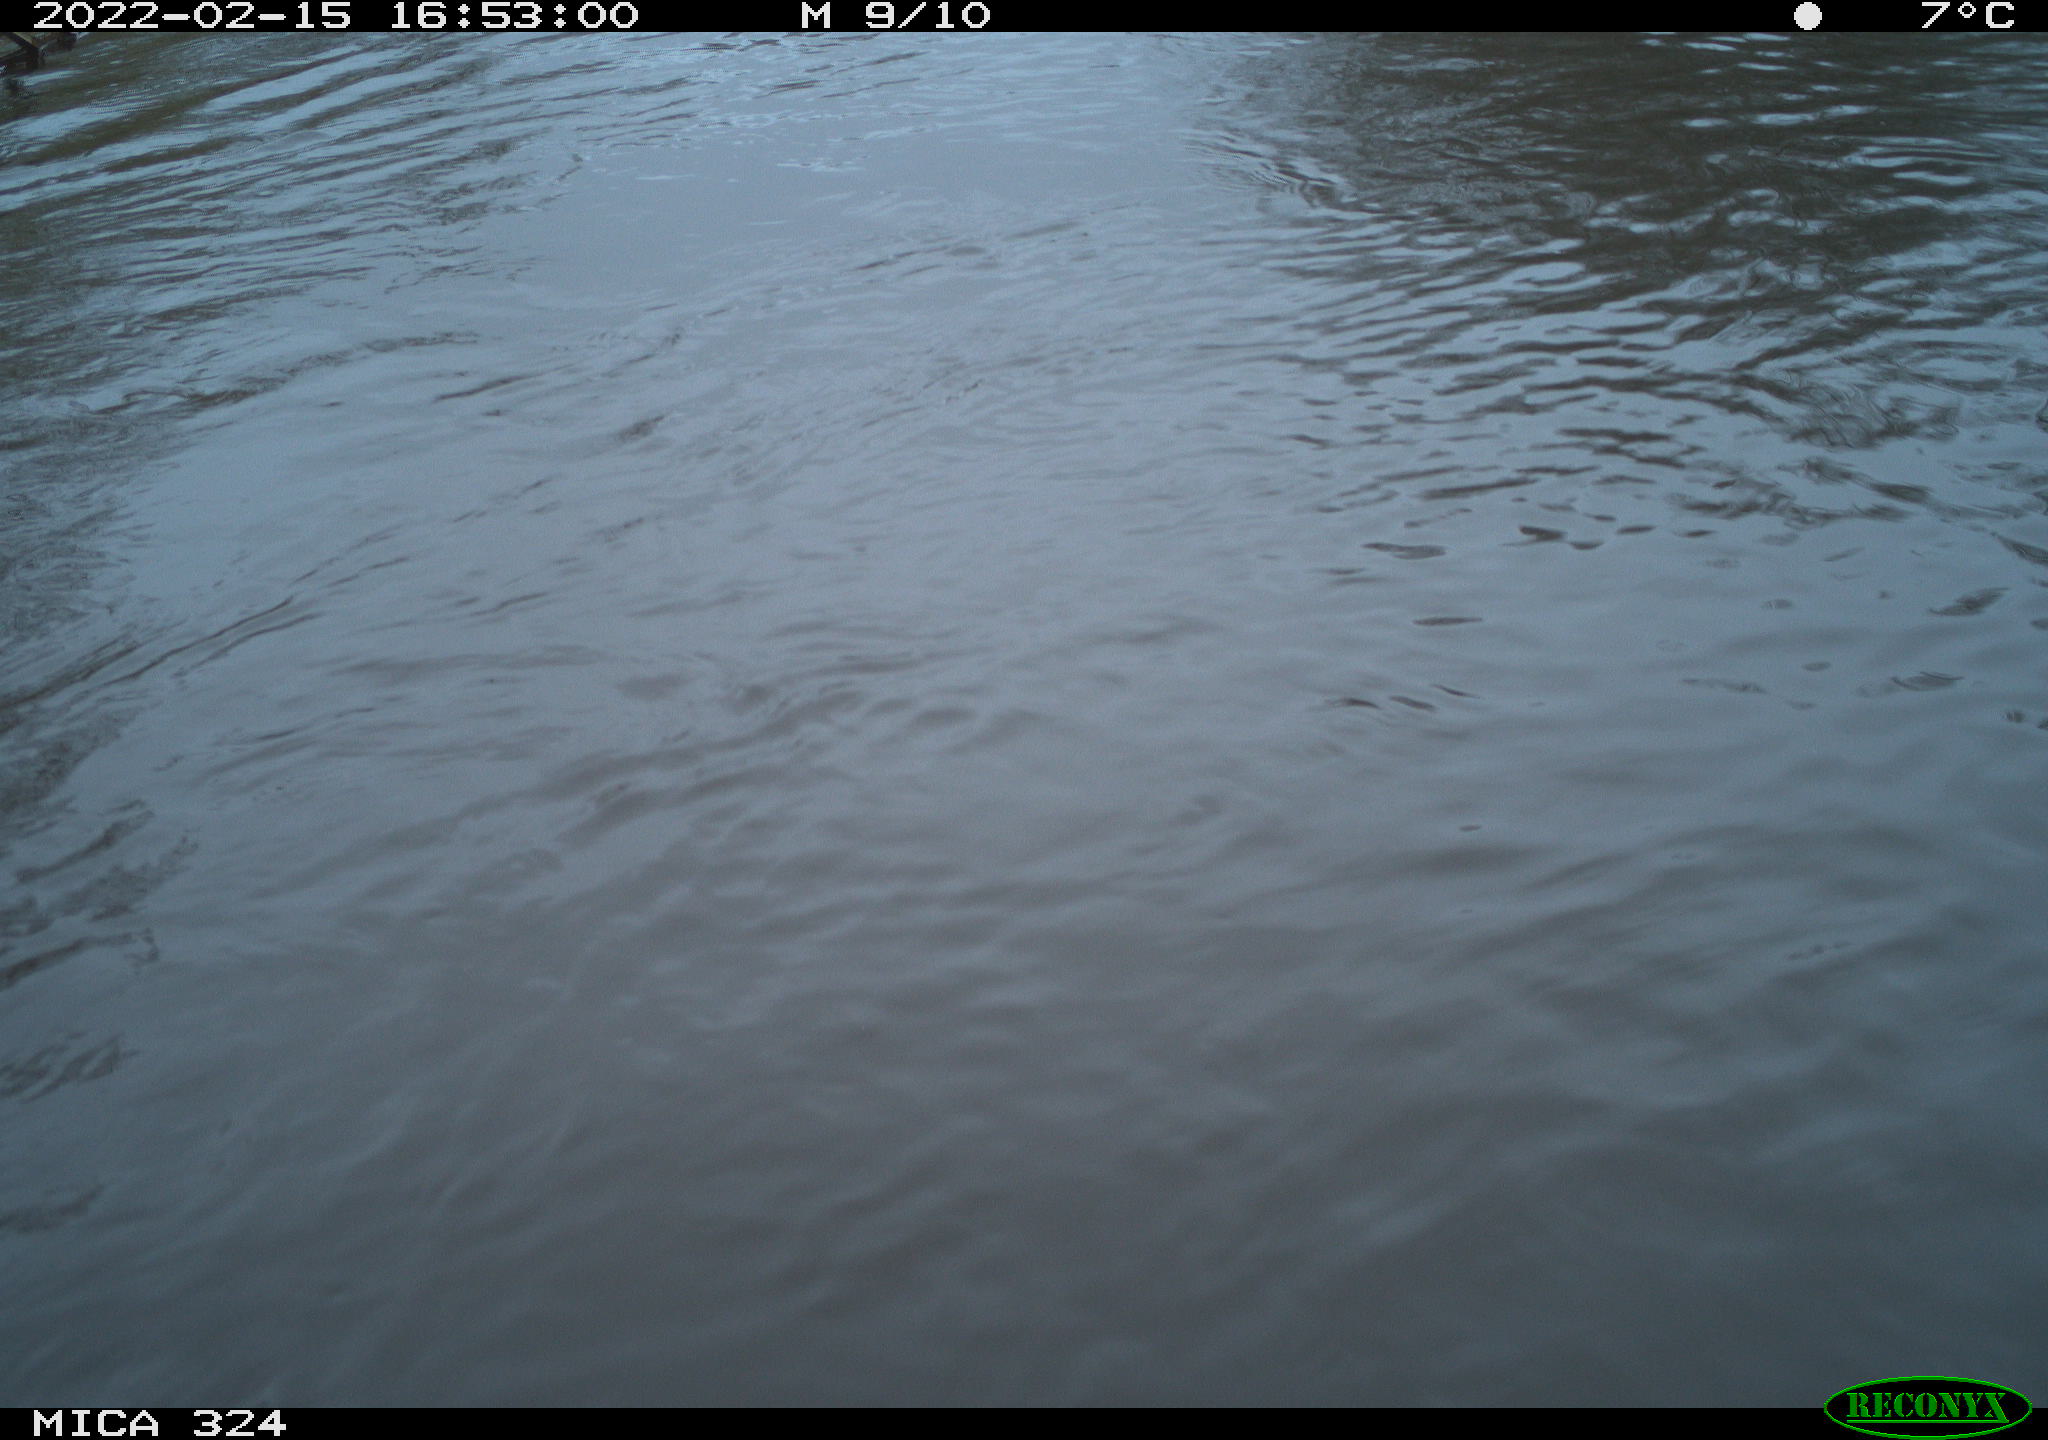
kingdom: Animalia
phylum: Chordata
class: Mammalia
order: Rodentia
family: Cricetidae
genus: Ondatra
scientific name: Ondatra zibethicus
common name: Muskrat
